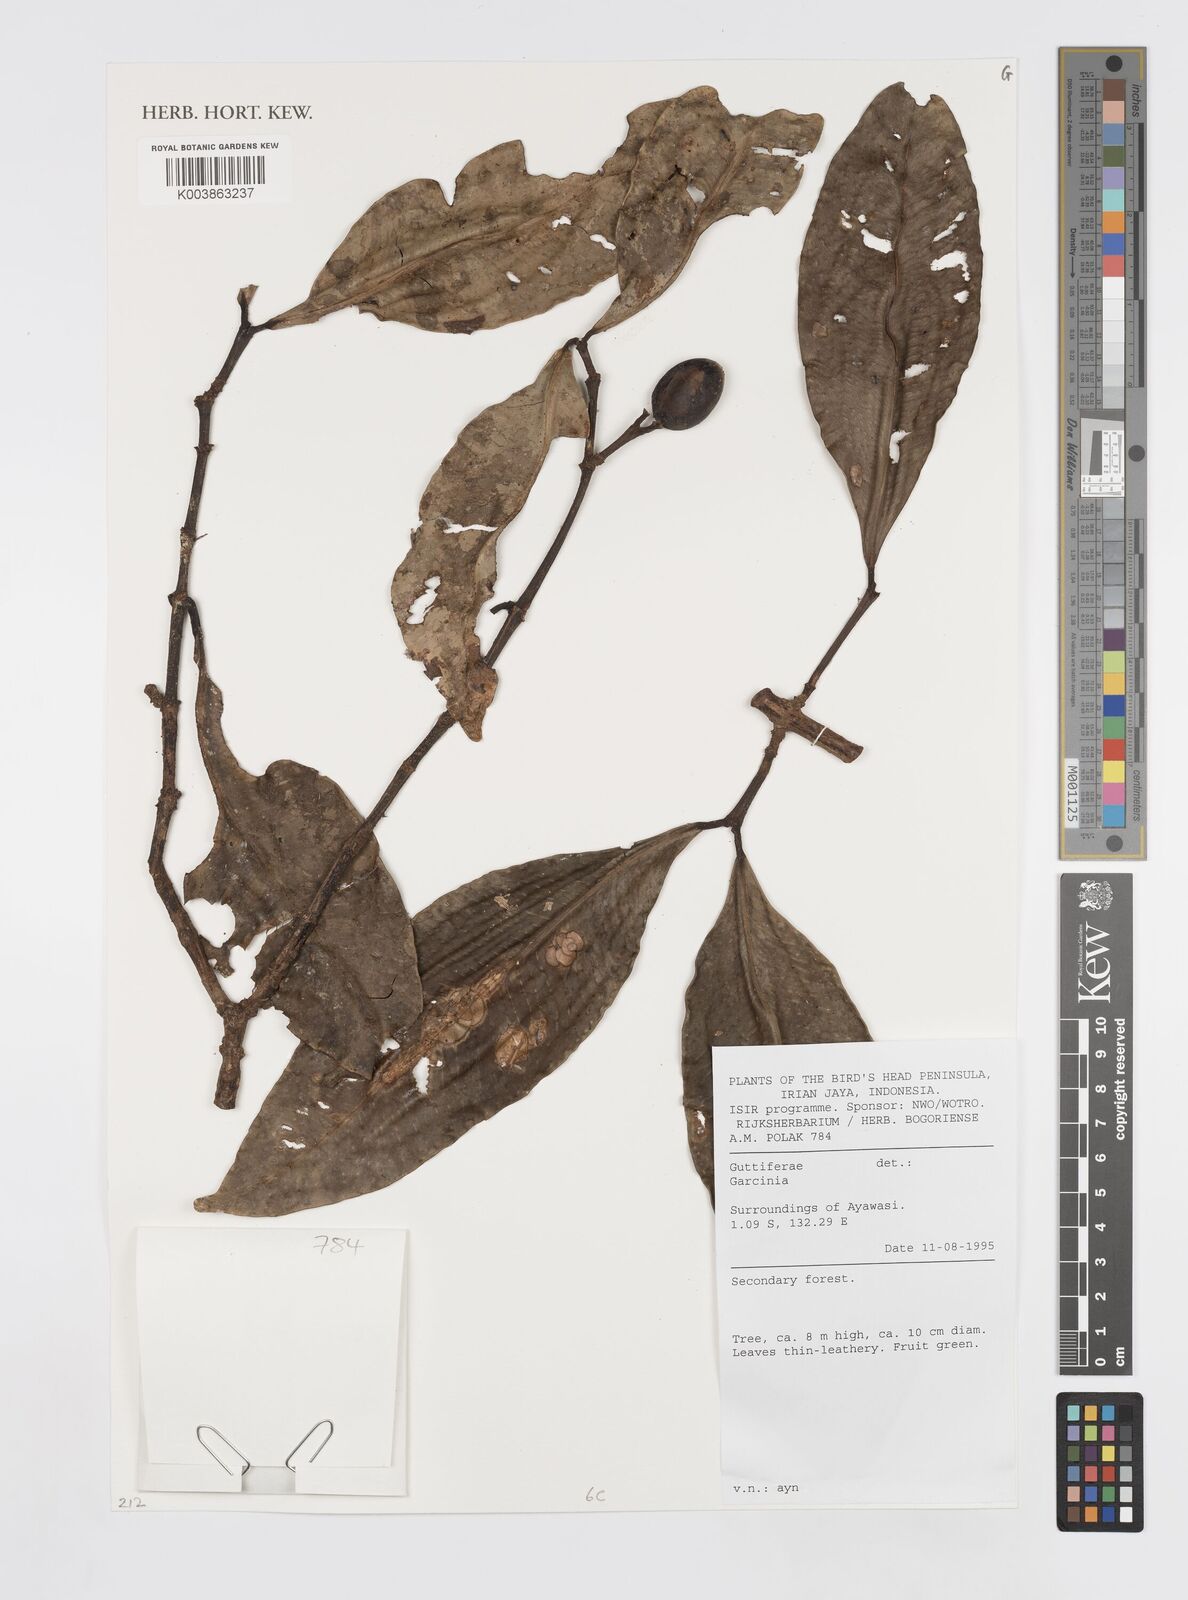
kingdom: Plantae
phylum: Tracheophyta
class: Magnoliopsida
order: Malpighiales
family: Clusiaceae
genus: Garcinia
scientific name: Garcinia
